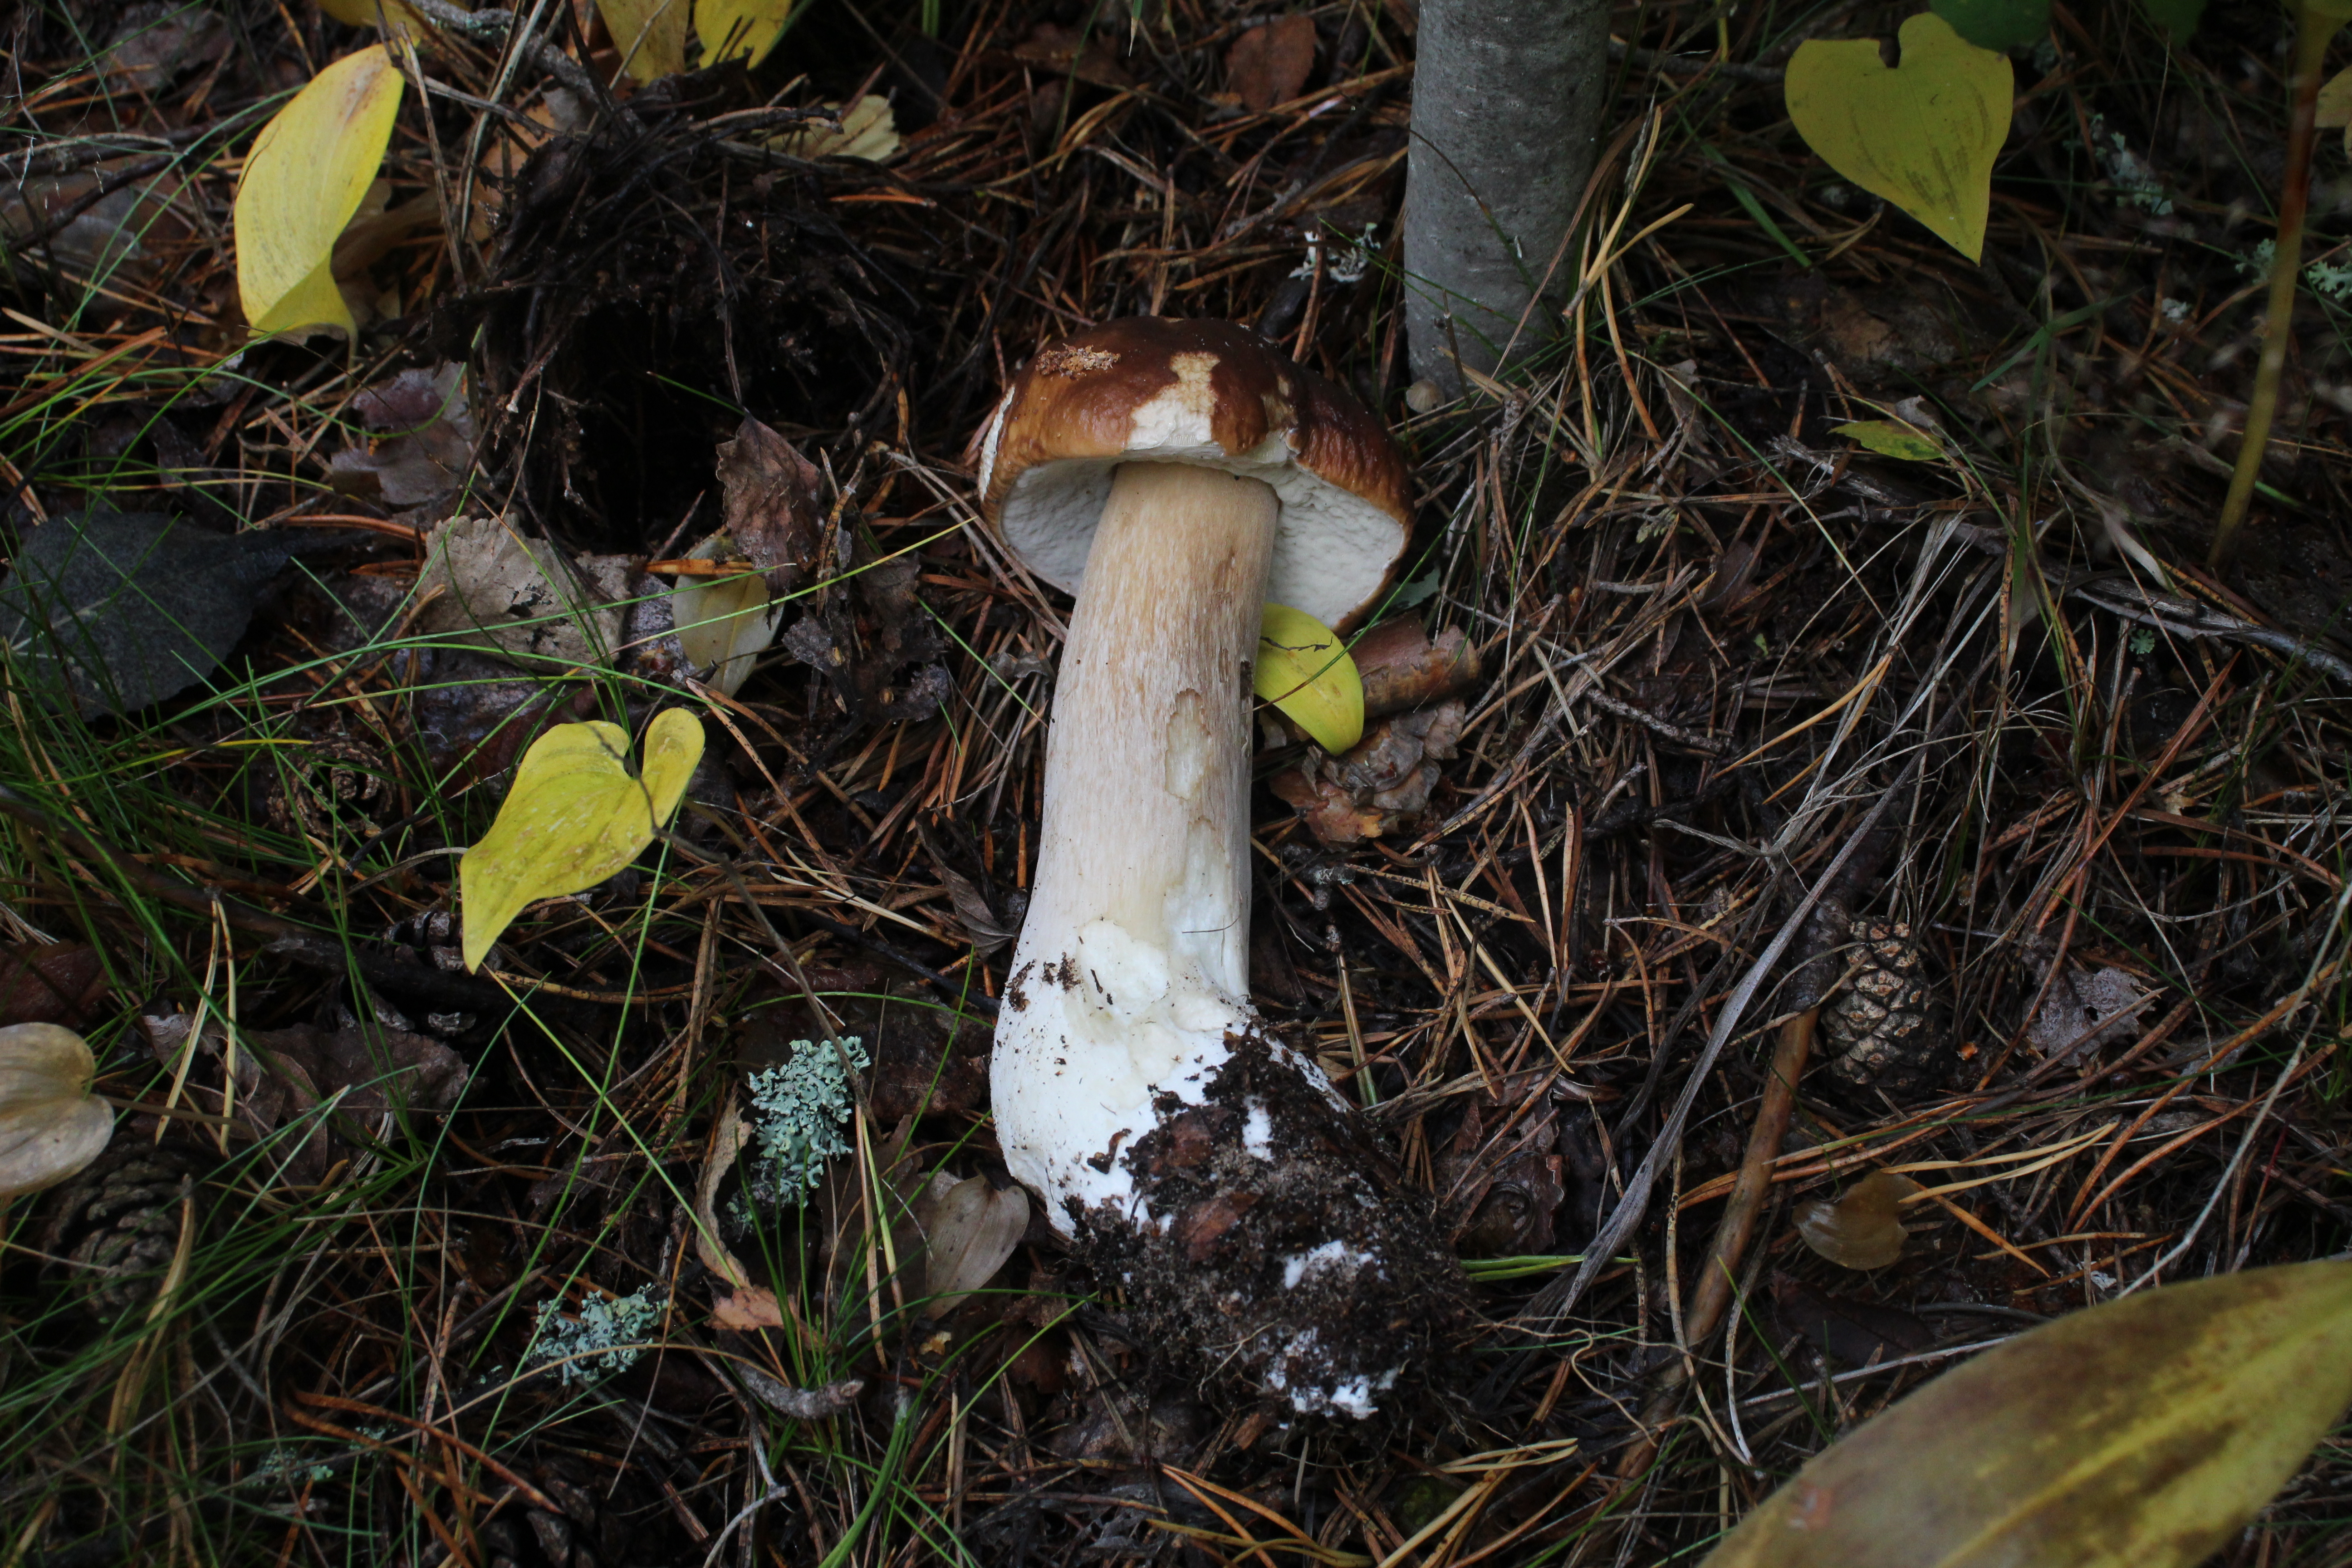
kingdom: Fungi
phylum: Basidiomycota
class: Agaricomycetes
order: Boletales
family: Boletaceae
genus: Boletus
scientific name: Boletus edulis
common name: Cep
